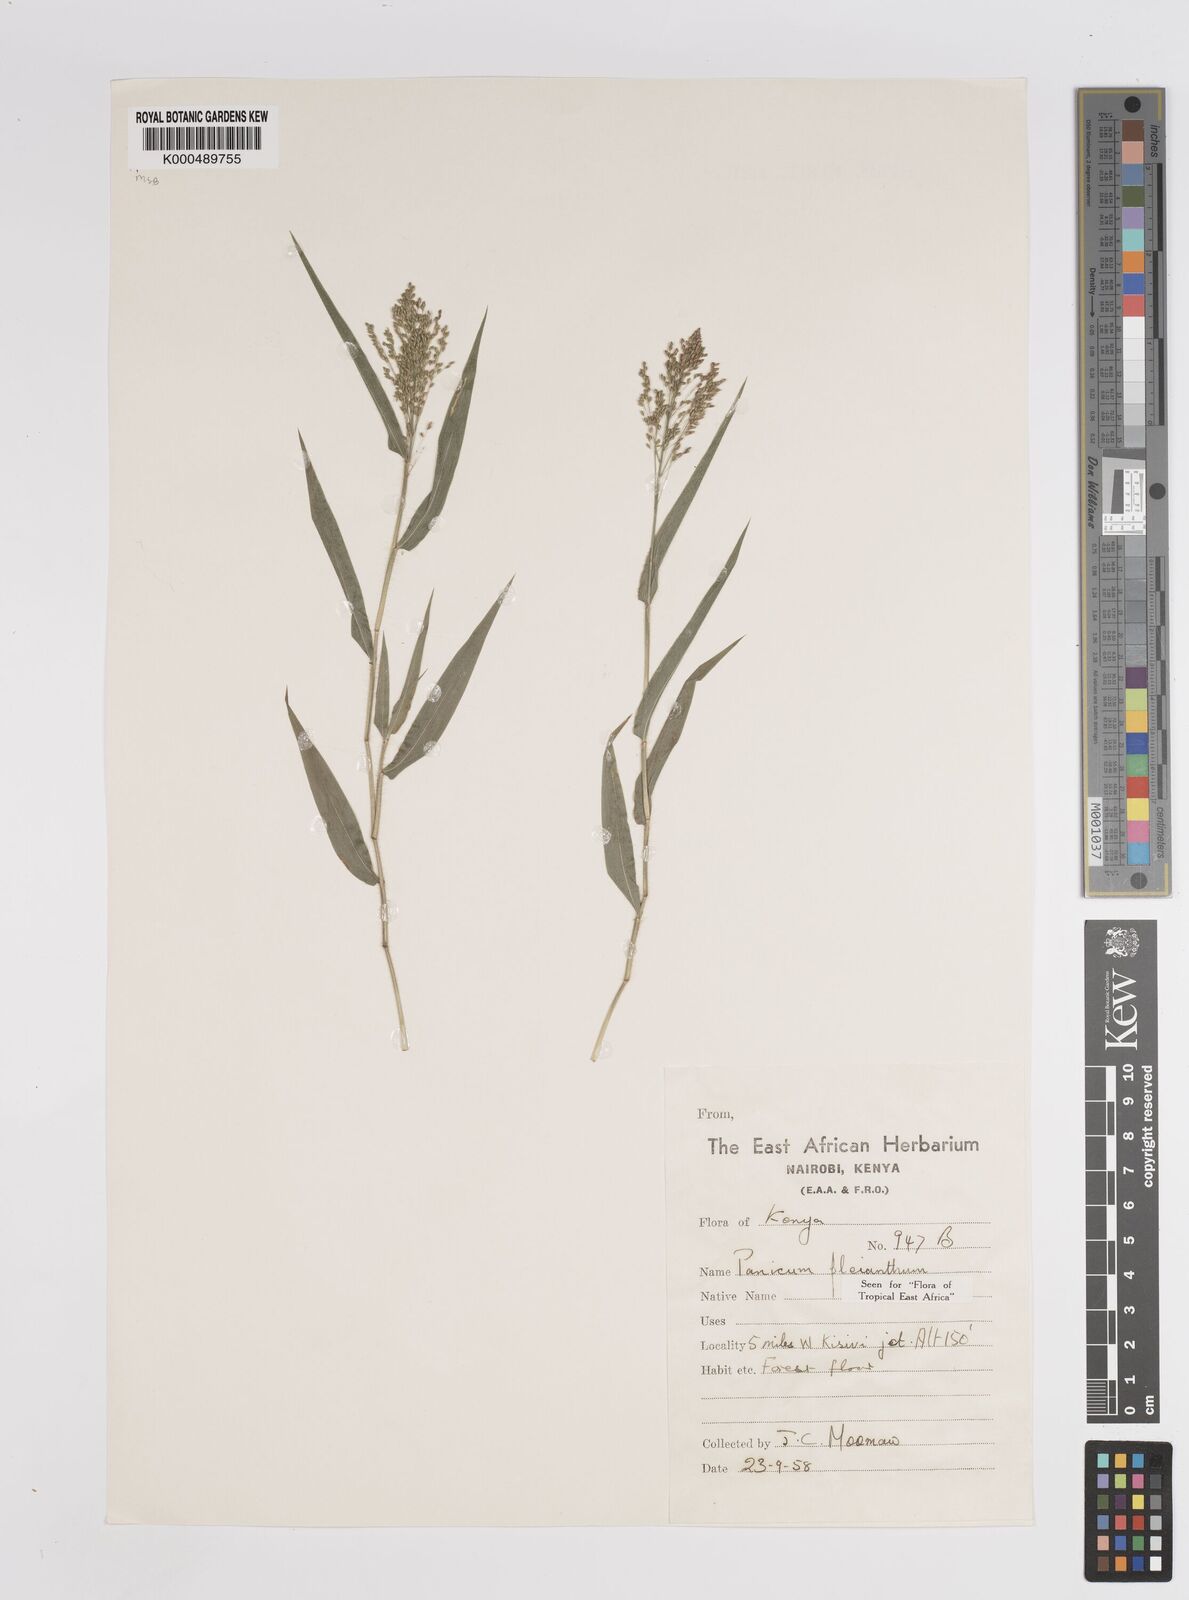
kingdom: Plantae
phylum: Tracheophyta
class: Liliopsida
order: Poales
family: Poaceae
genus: Panicum
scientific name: Panicum pleianthum
